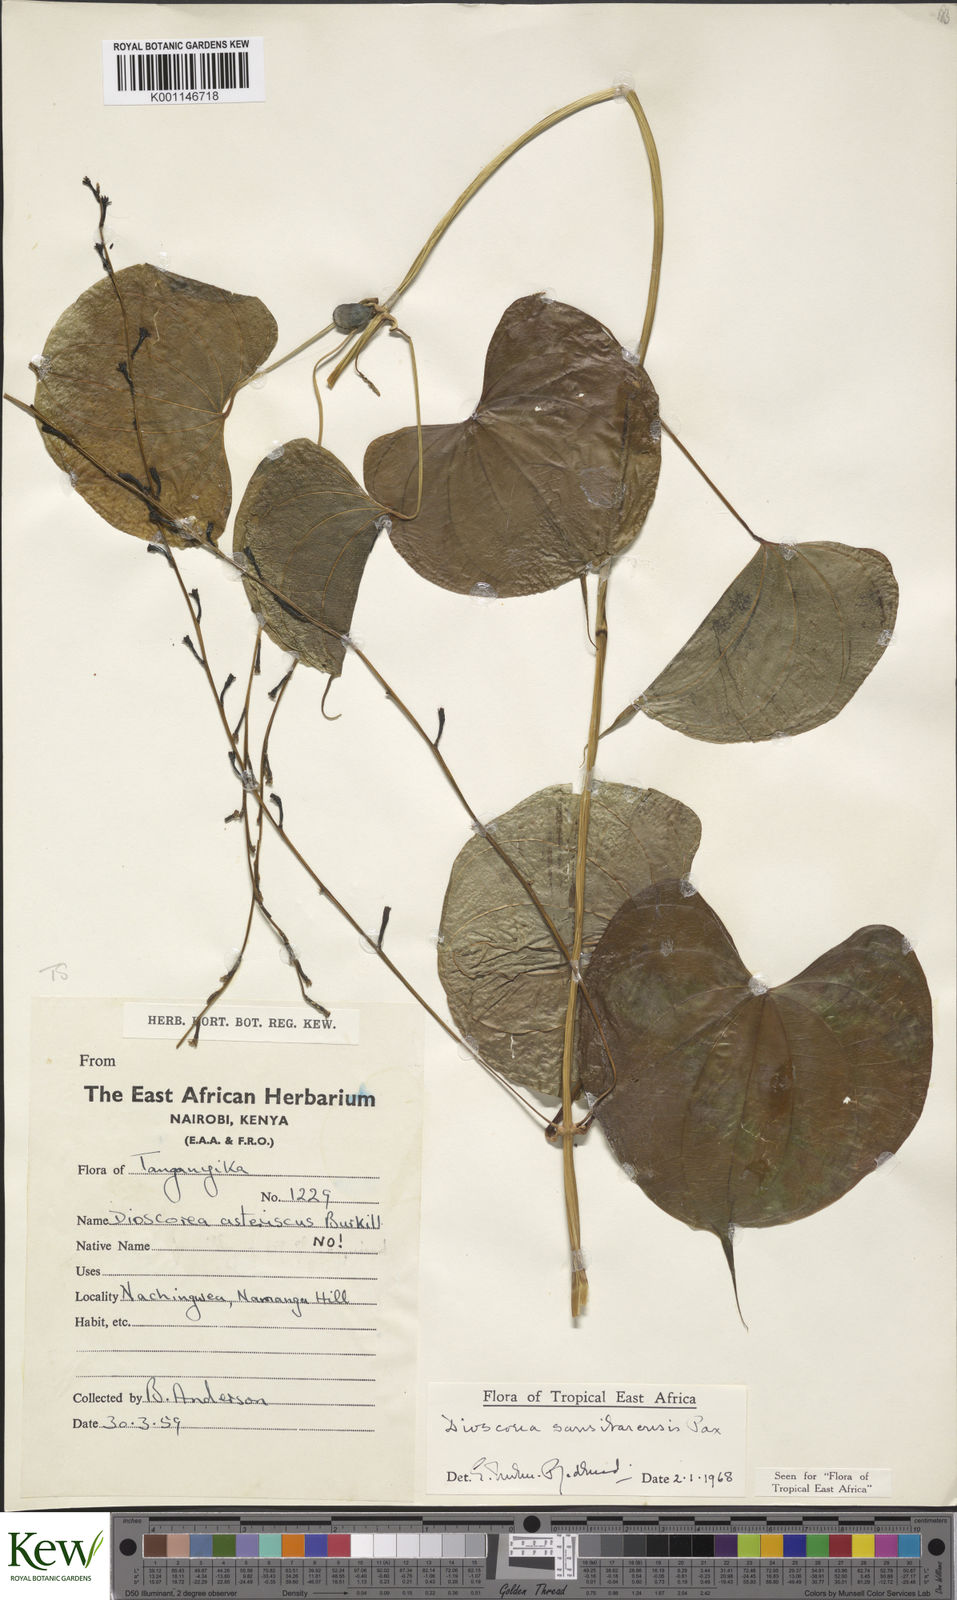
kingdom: Plantae
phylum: Tracheophyta
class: Liliopsida
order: Dioscoreales
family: Dioscoreaceae
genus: Dioscorea
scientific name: Dioscorea sansibarensis
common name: Zanzibar yam
